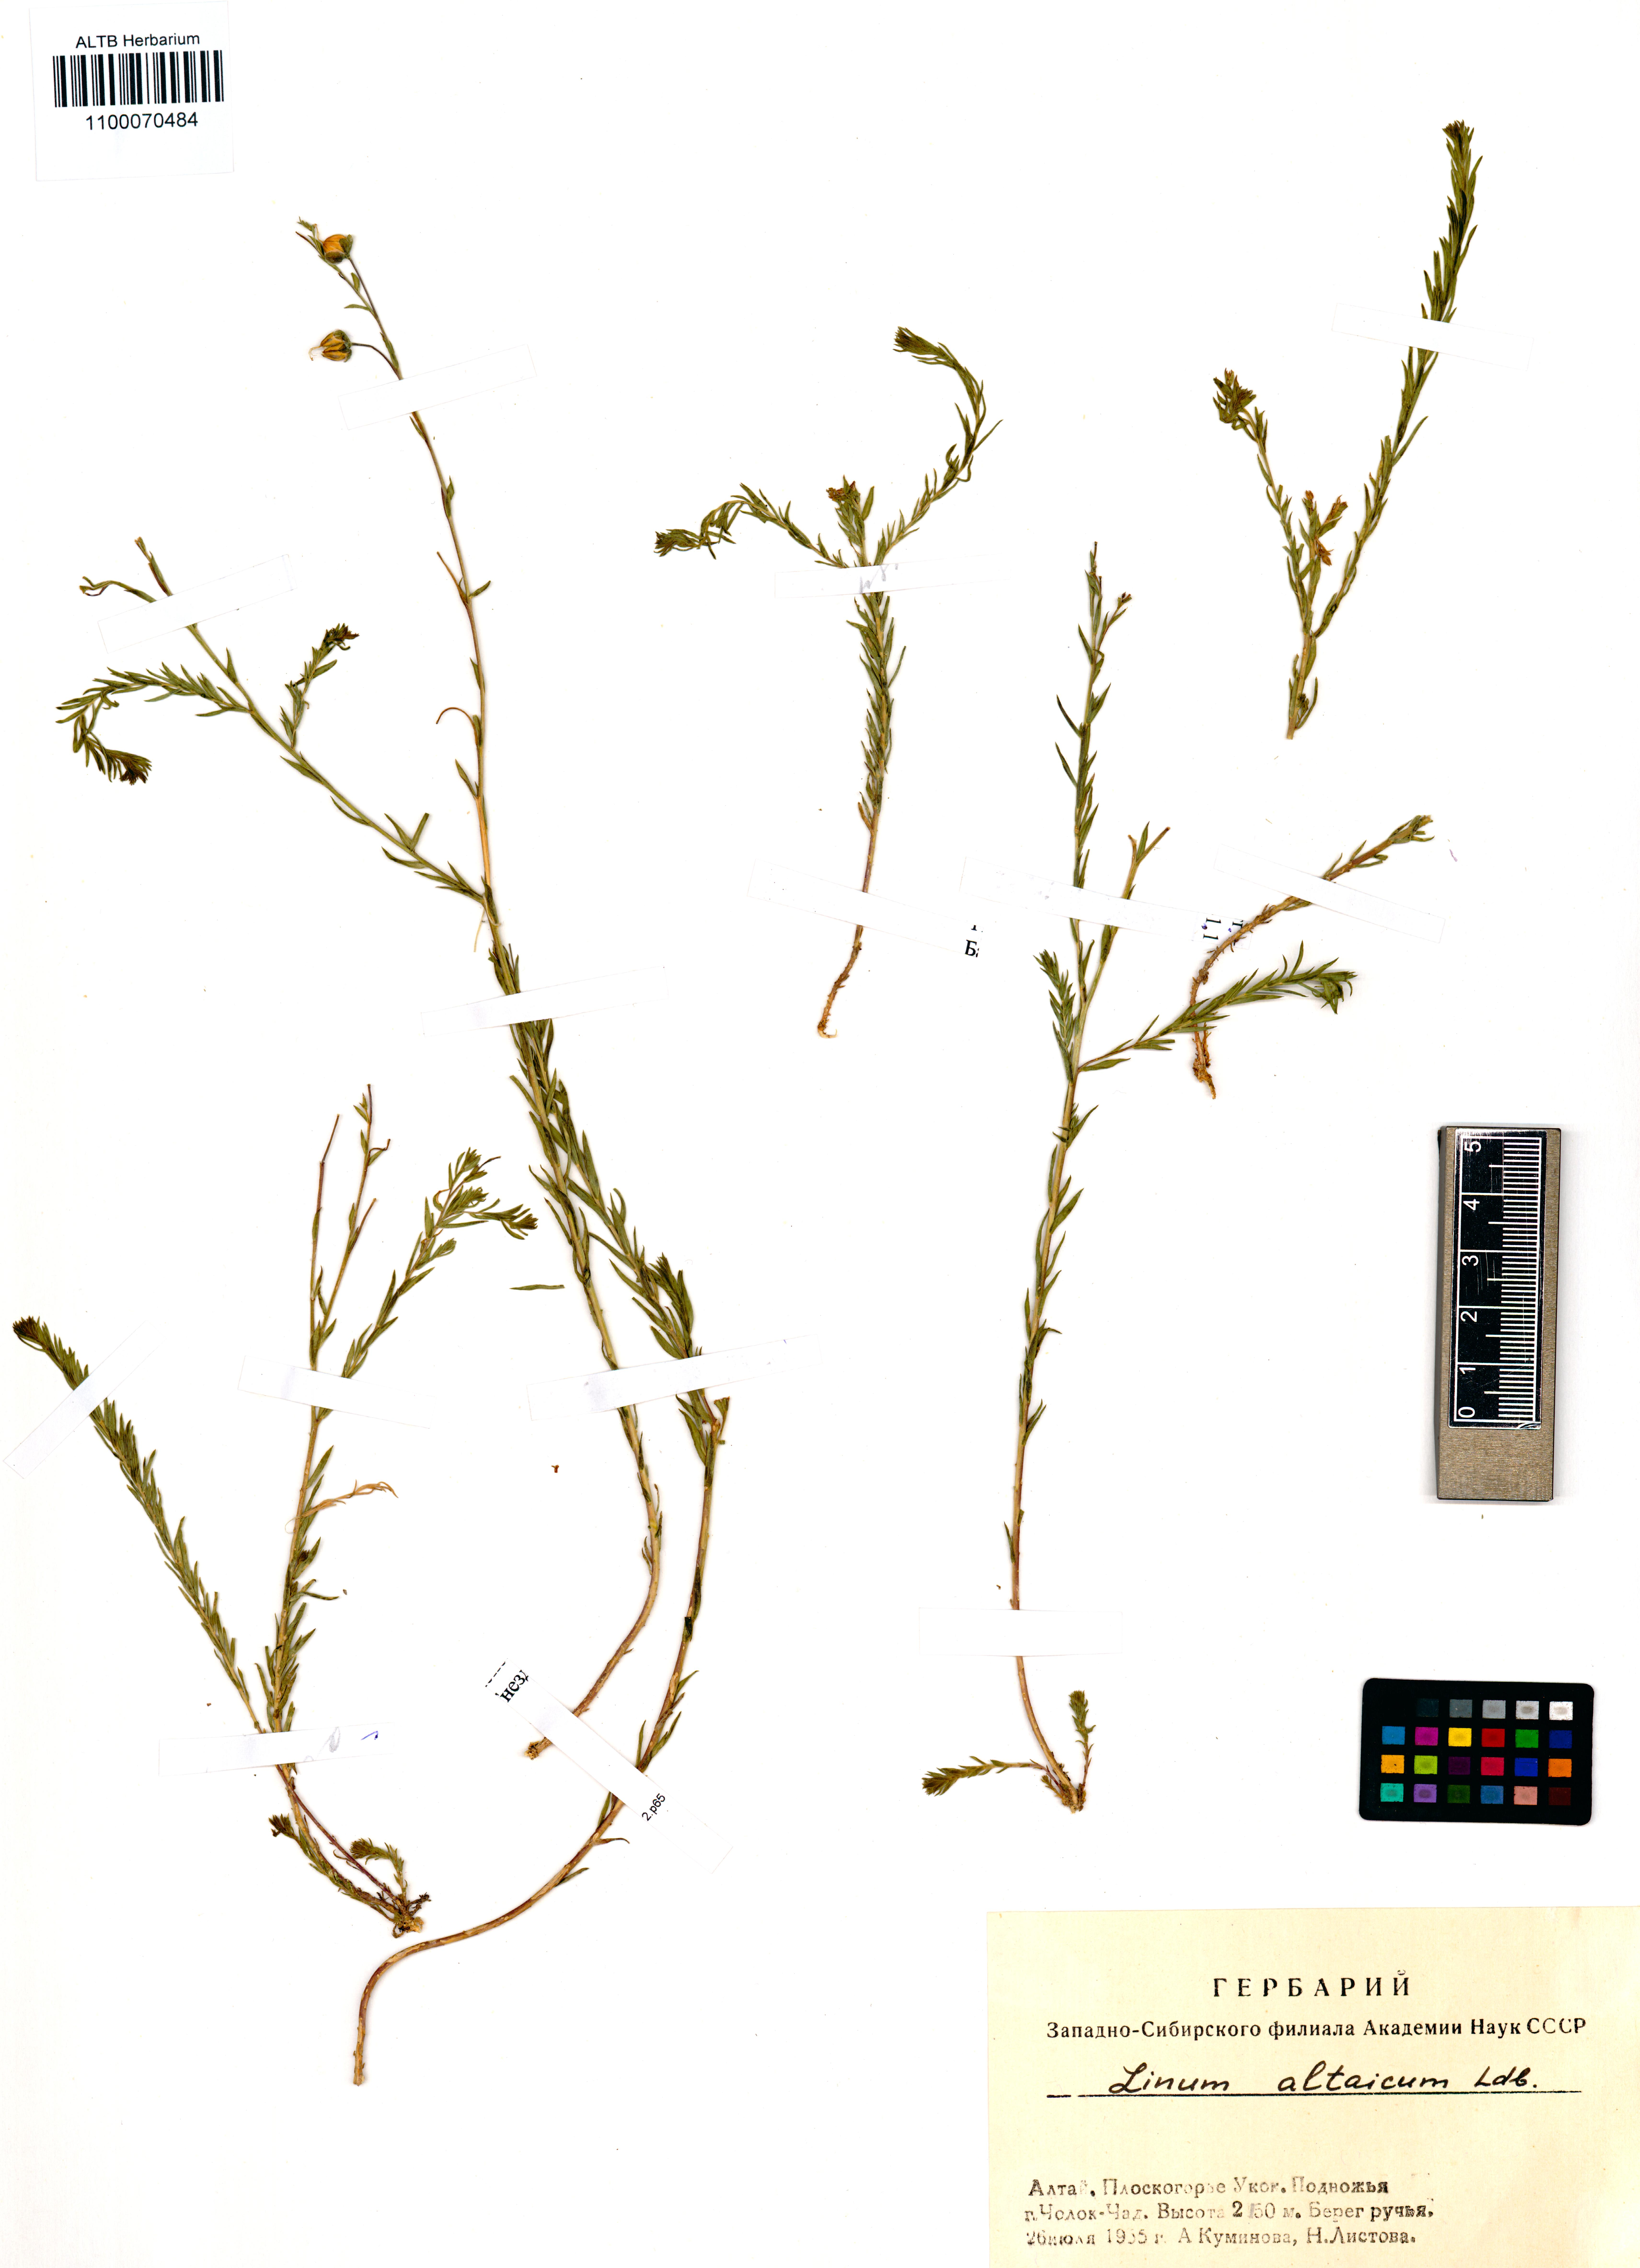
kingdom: Plantae
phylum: Tracheophyta
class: Magnoliopsida
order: Malpighiales
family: Linaceae
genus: Linum
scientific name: Linum altaicum
